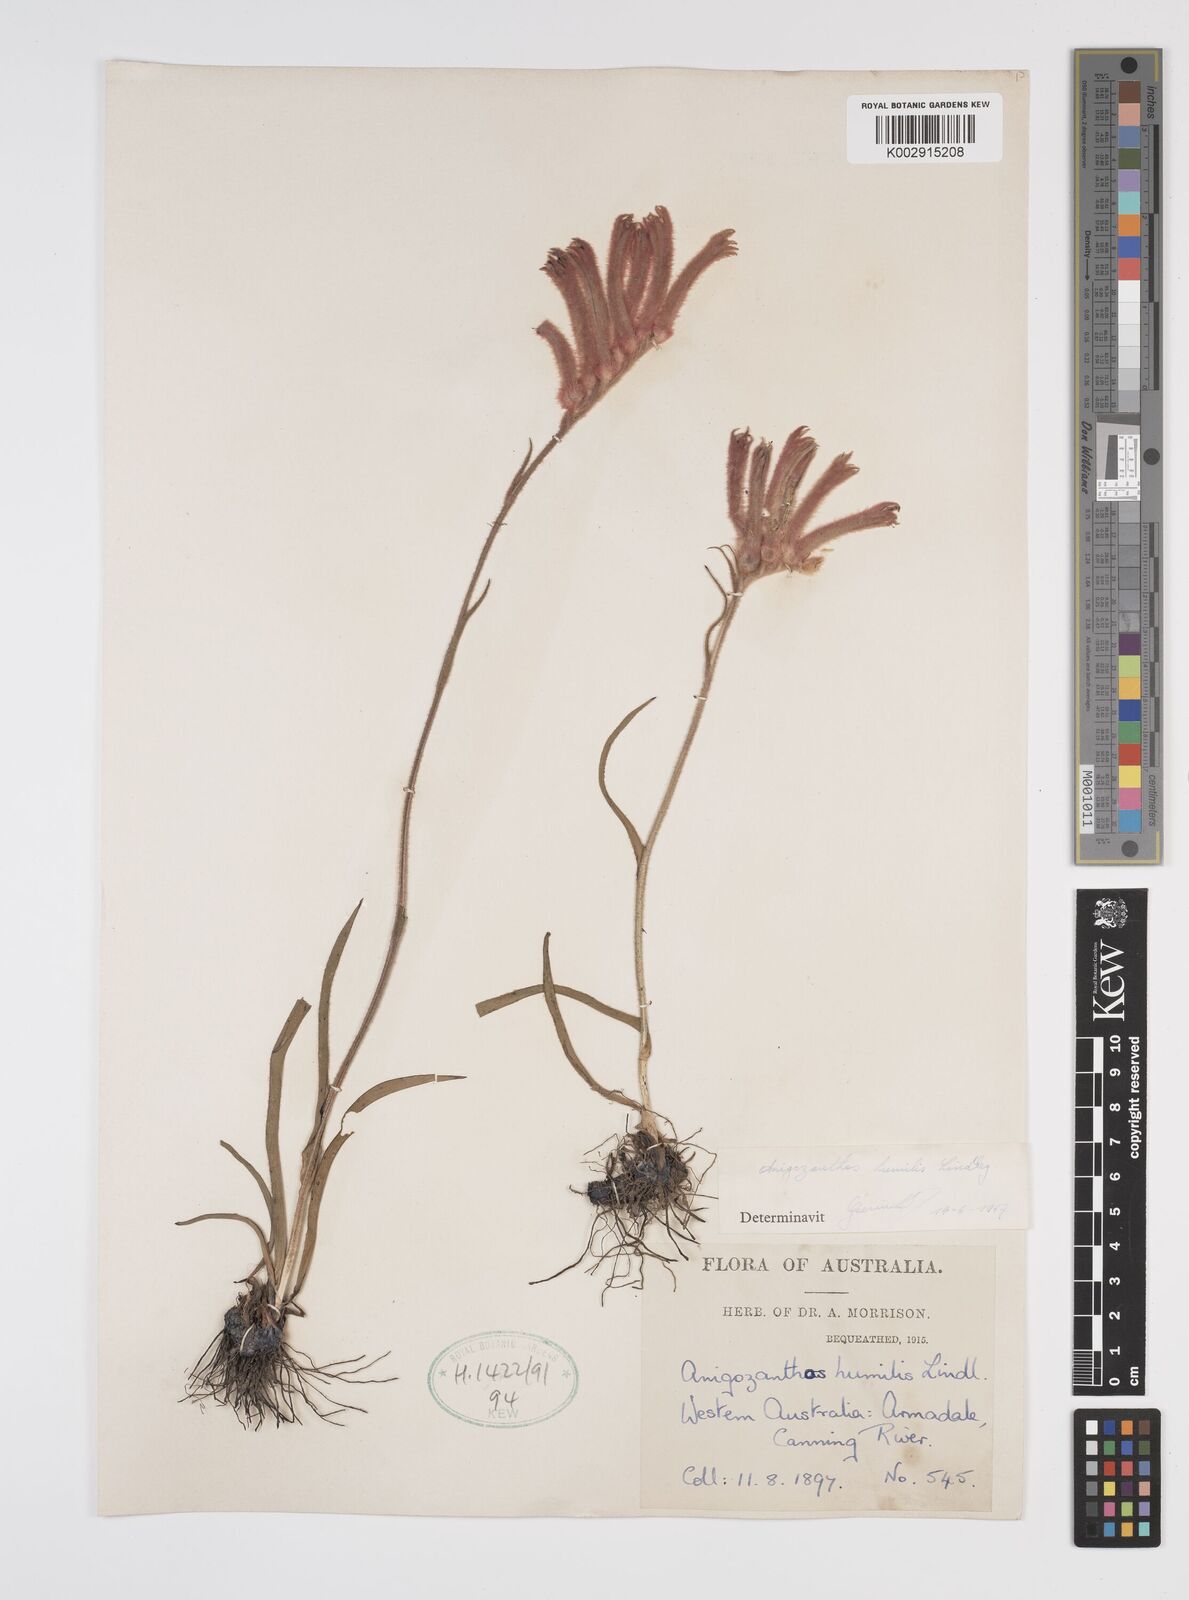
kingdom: Plantae
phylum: Tracheophyta
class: Liliopsida
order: Commelinales
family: Haemodoraceae
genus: Anigozanthos
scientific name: Anigozanthos humilis
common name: Cat's-paw
